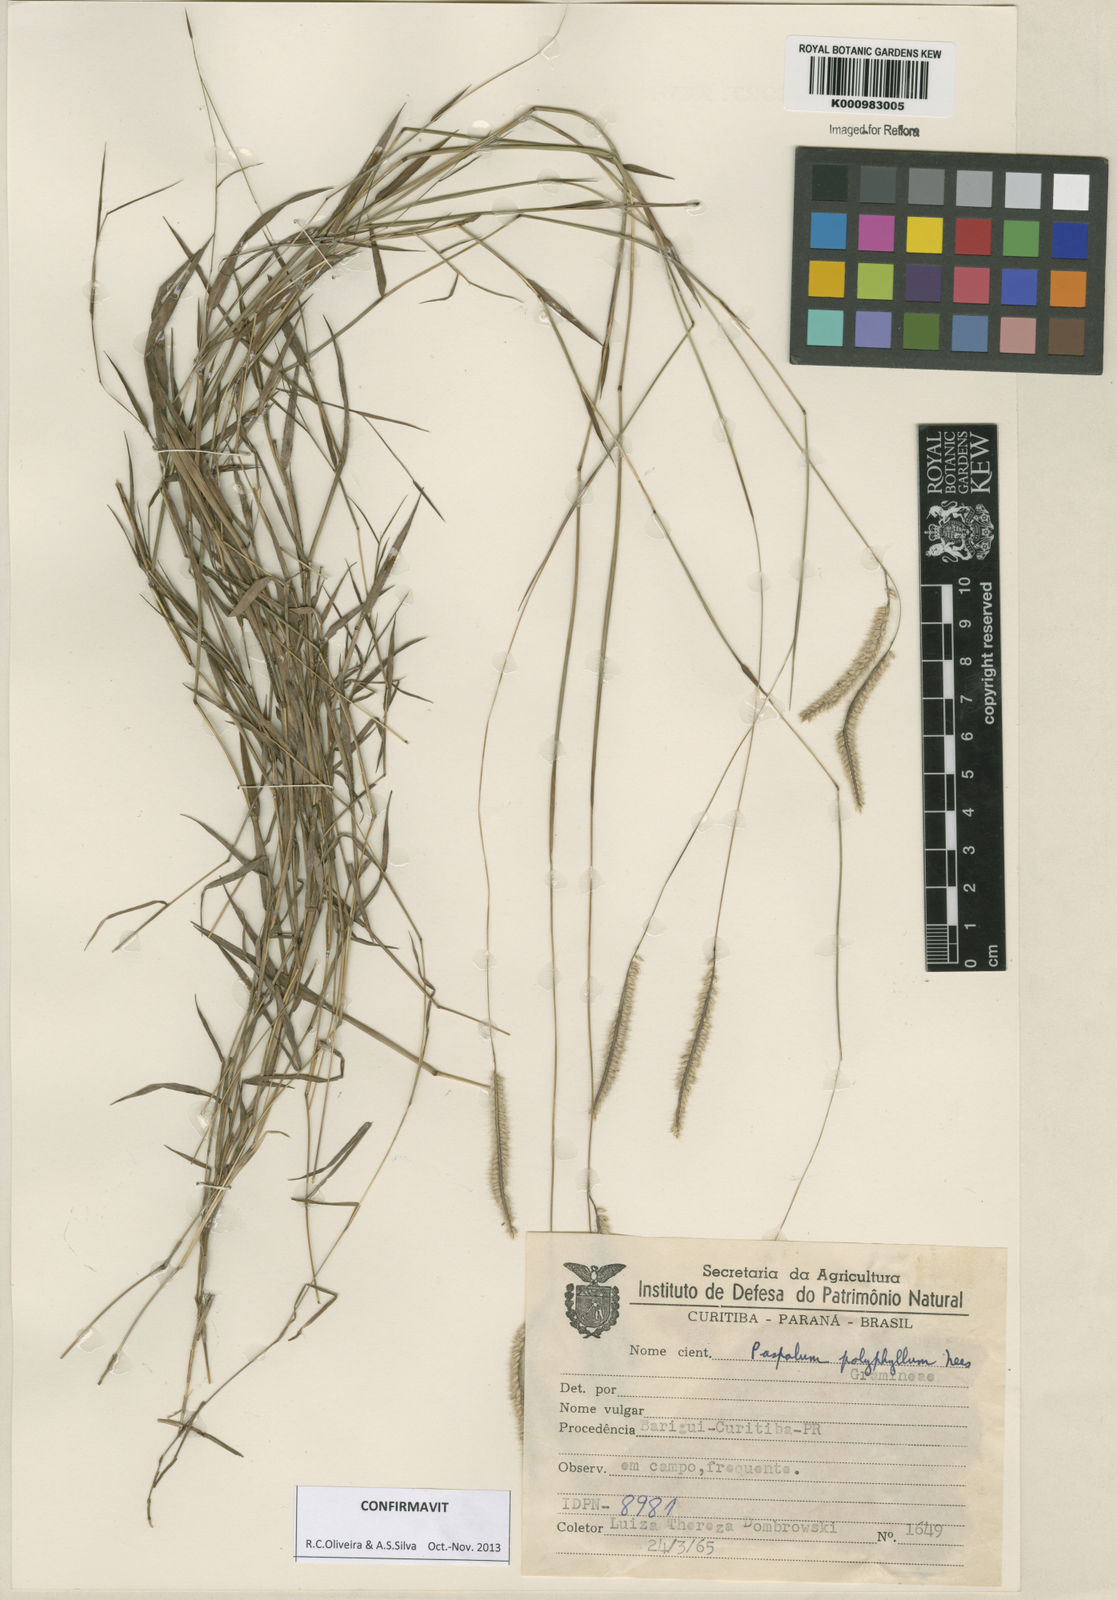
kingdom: Plantae
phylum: Tracheophyta
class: Liliopsida
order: Poales
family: Poaceae
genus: Paspalum
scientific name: Paspalum
